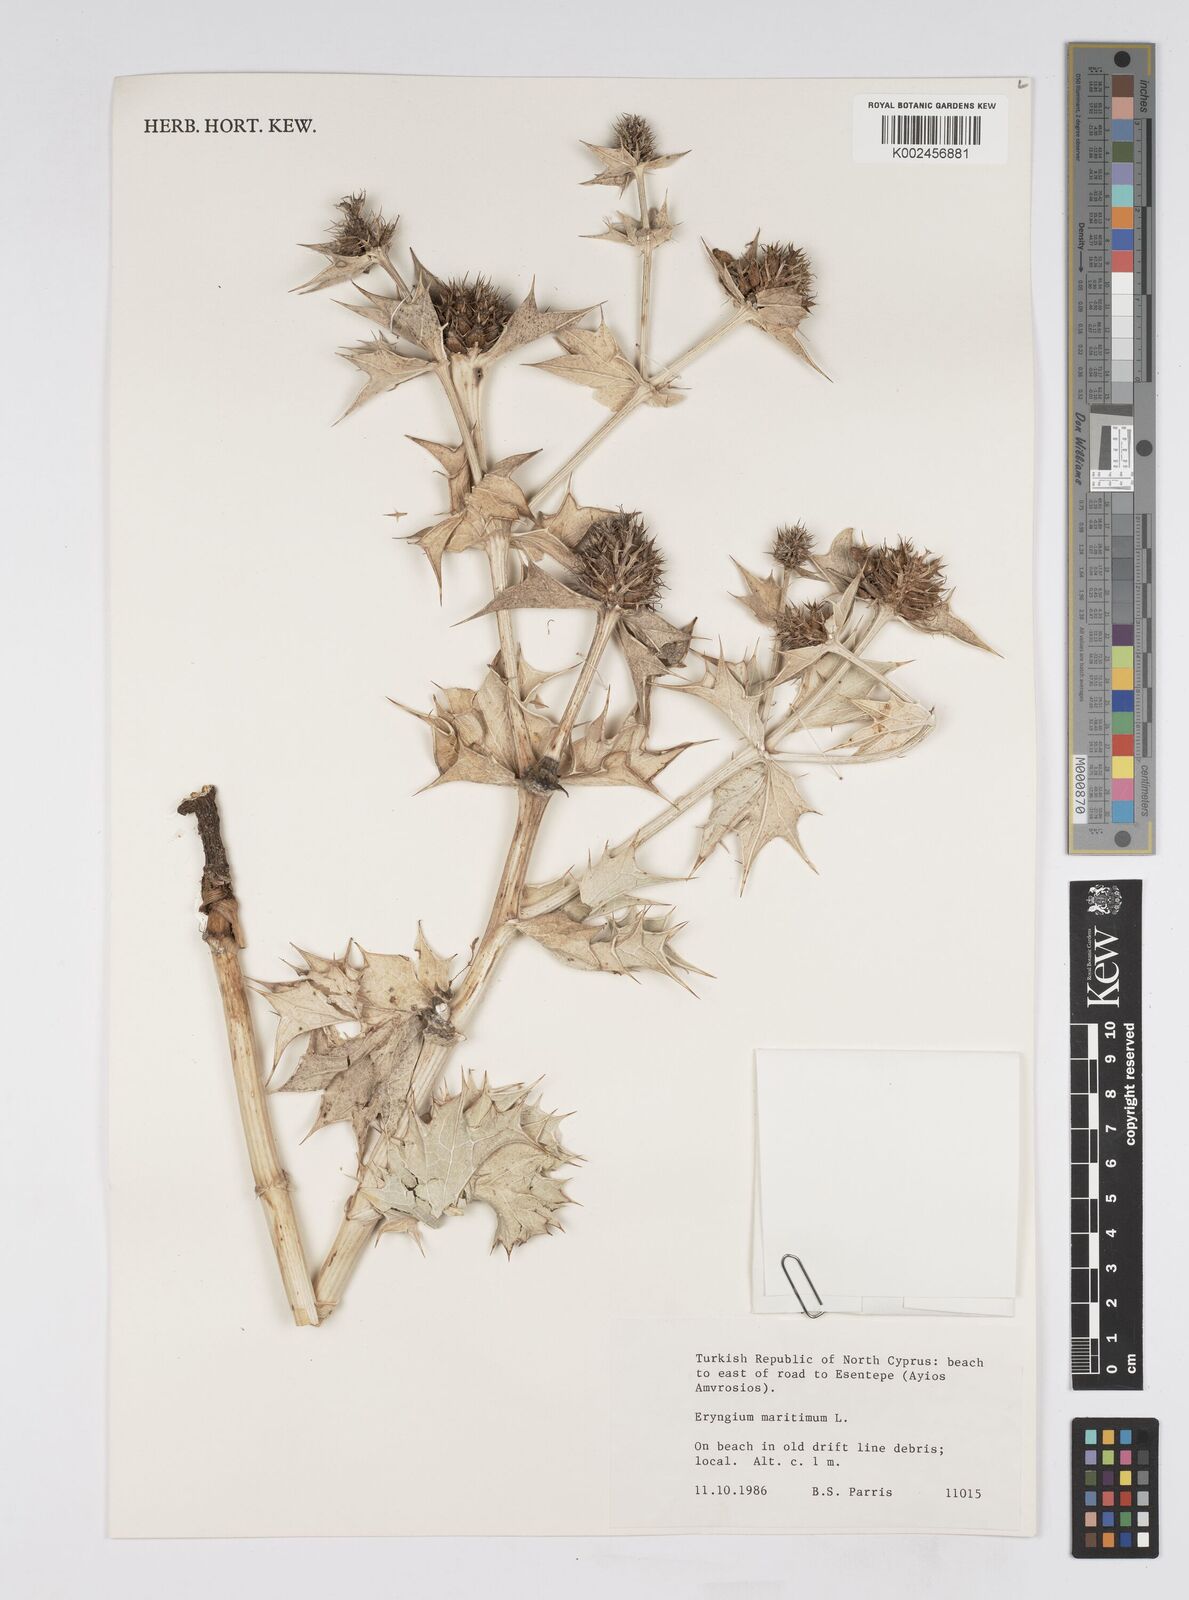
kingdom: Plantae
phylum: Tracheophyta
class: Magnoliopsida
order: Apiales
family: Apiaceae
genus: Eryngium
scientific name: Eryngium maritimum
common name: Sea-holly
